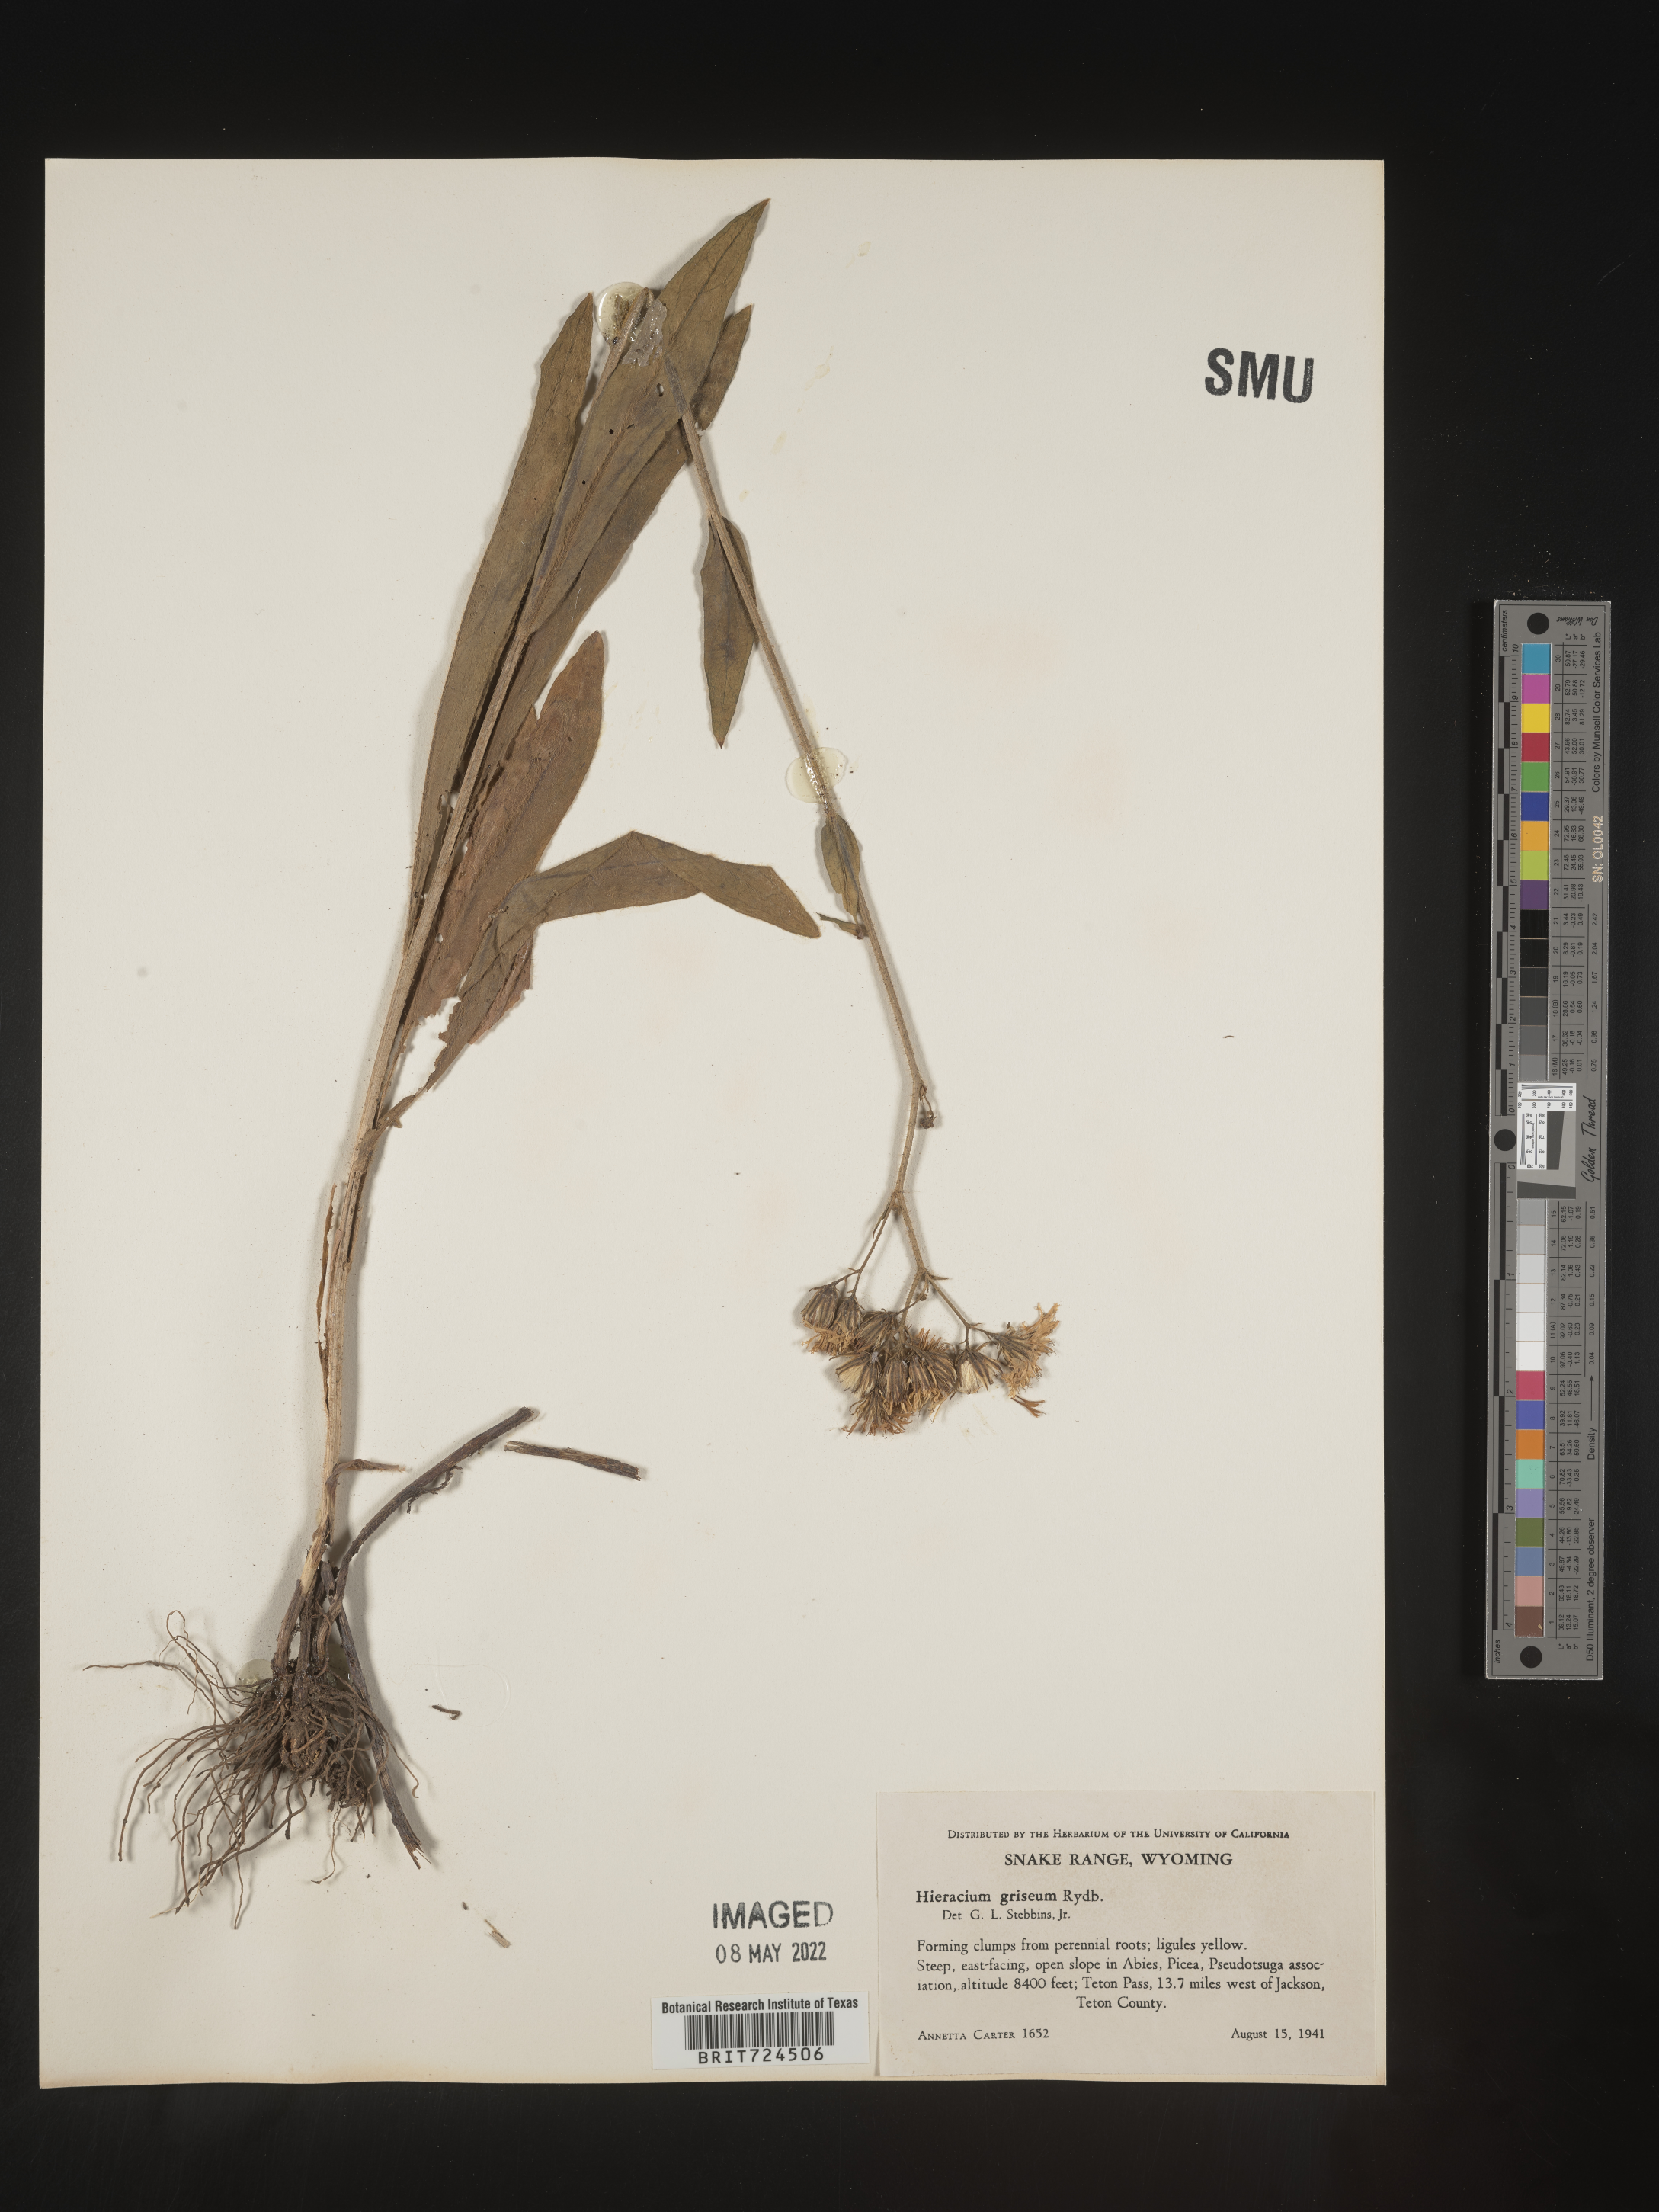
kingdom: Plantae
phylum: Tracheophyta
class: Magnoliopsida
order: Asterales
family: Asteraceae
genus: Hieracium
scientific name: Hieracium
